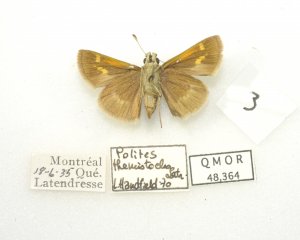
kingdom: Animalia
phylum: Arthropoda
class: Insecta
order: Lepidoptera
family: Hesperiidae
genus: Polites
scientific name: Polites themistocles
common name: Tawny-edged Skipper
